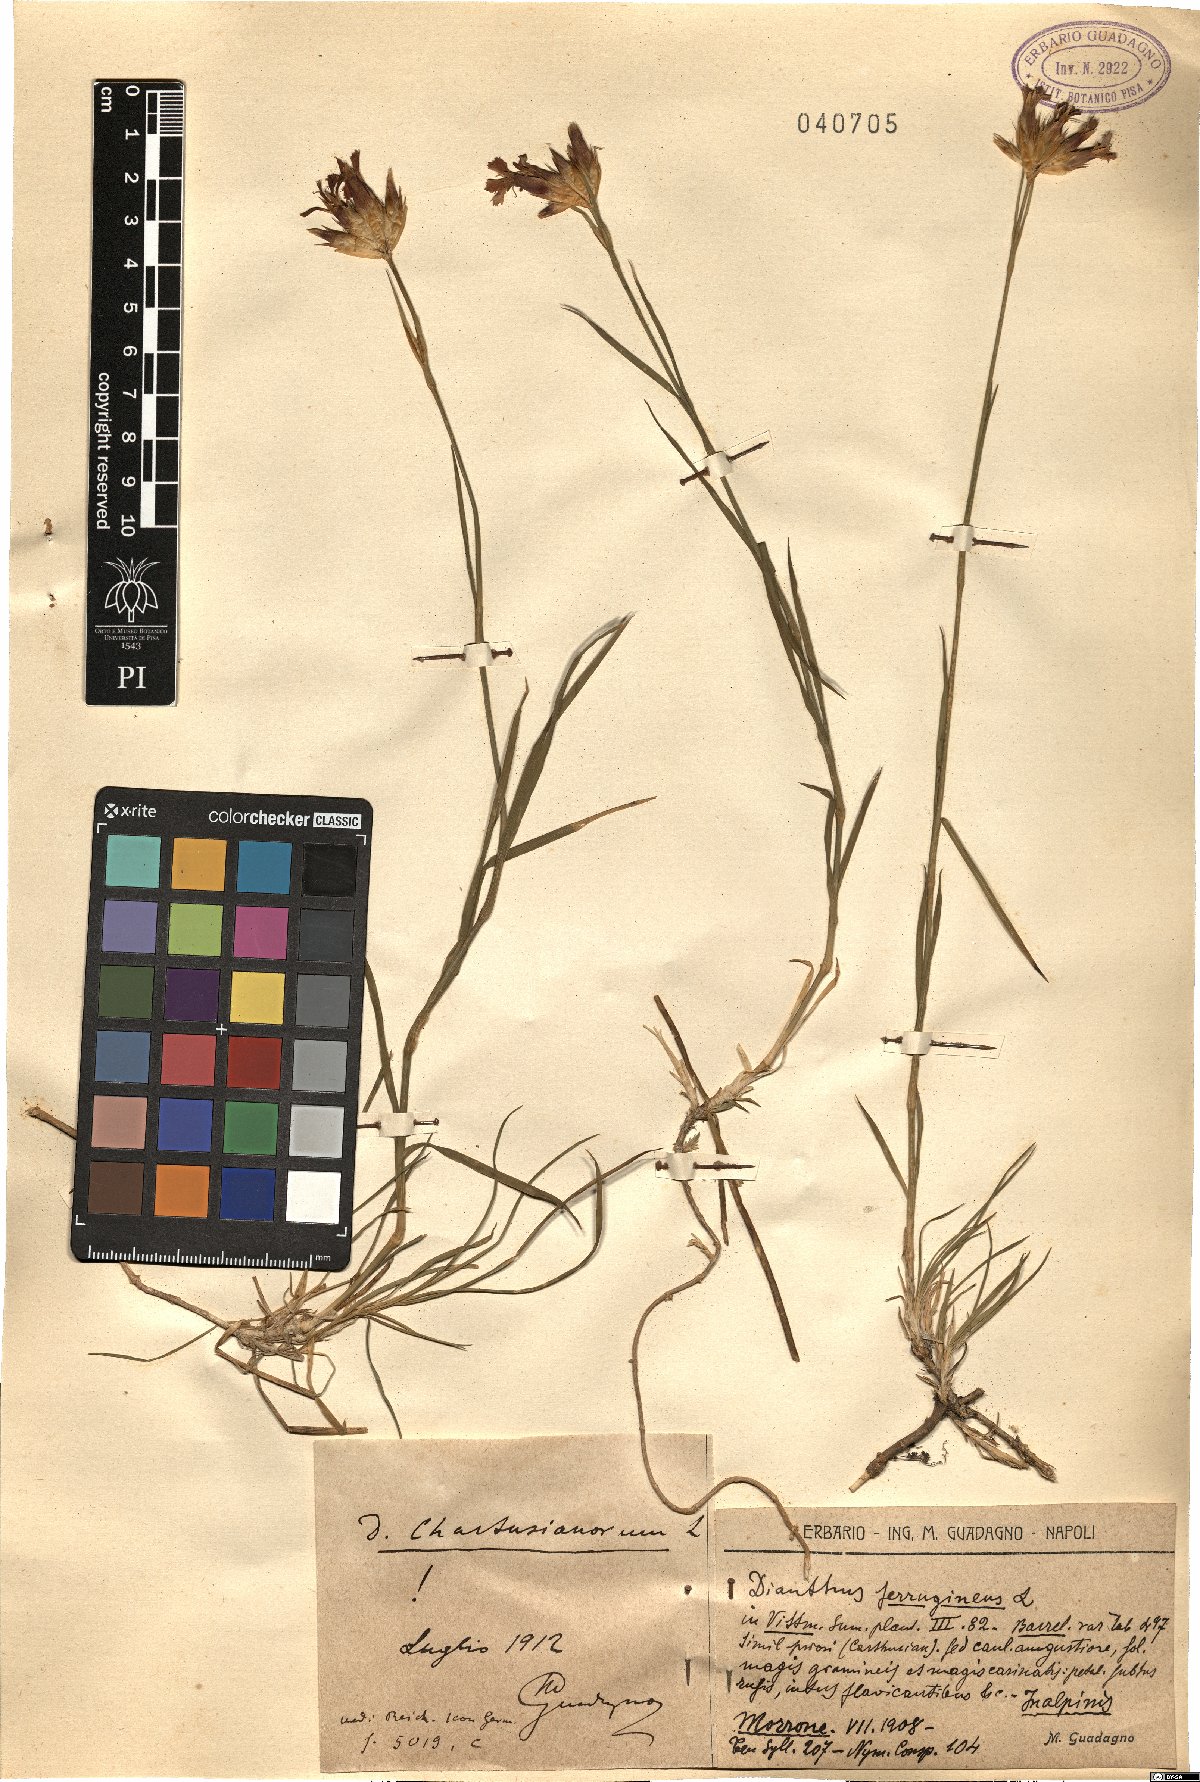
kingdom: Plantae
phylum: Tracheophyta
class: Magnoliopsida
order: Caryophyllales
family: Caryophyllaceae
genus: Dianthus
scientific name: Dianthus carthusianorum
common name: Carthusian pink
